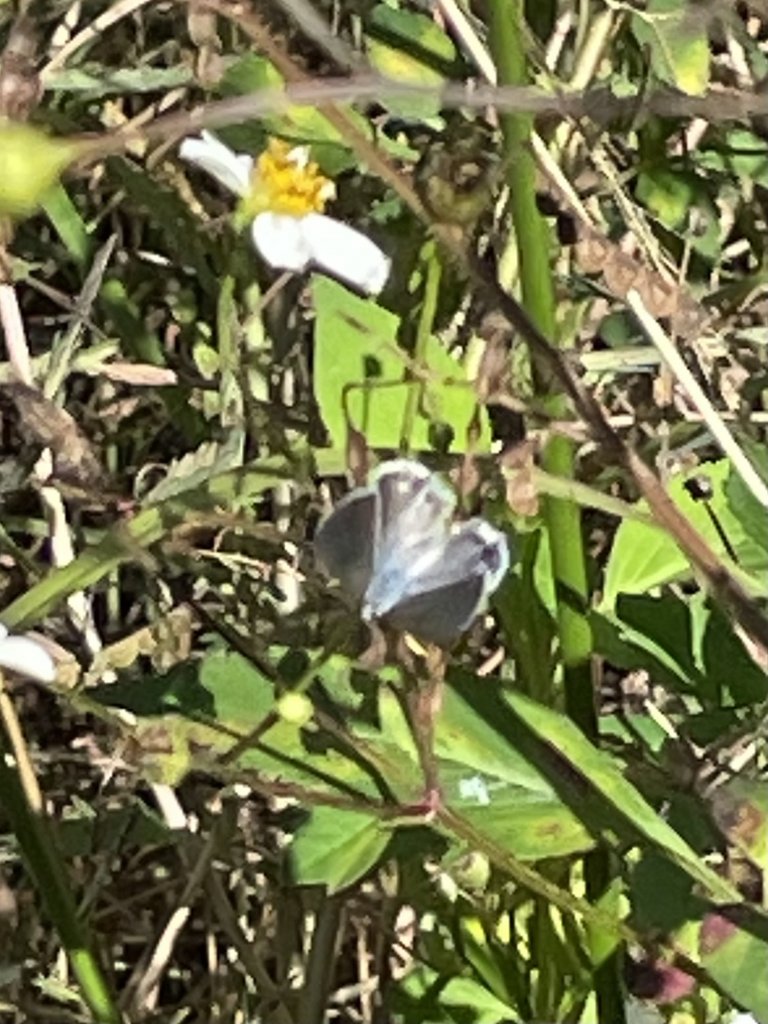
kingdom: Animalia
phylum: Arthropoda
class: Insecta
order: Lepidoptera
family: Lycaenidae
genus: Hemiargus
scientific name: Hemiargus ceraunus
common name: Ceraunus Blue
